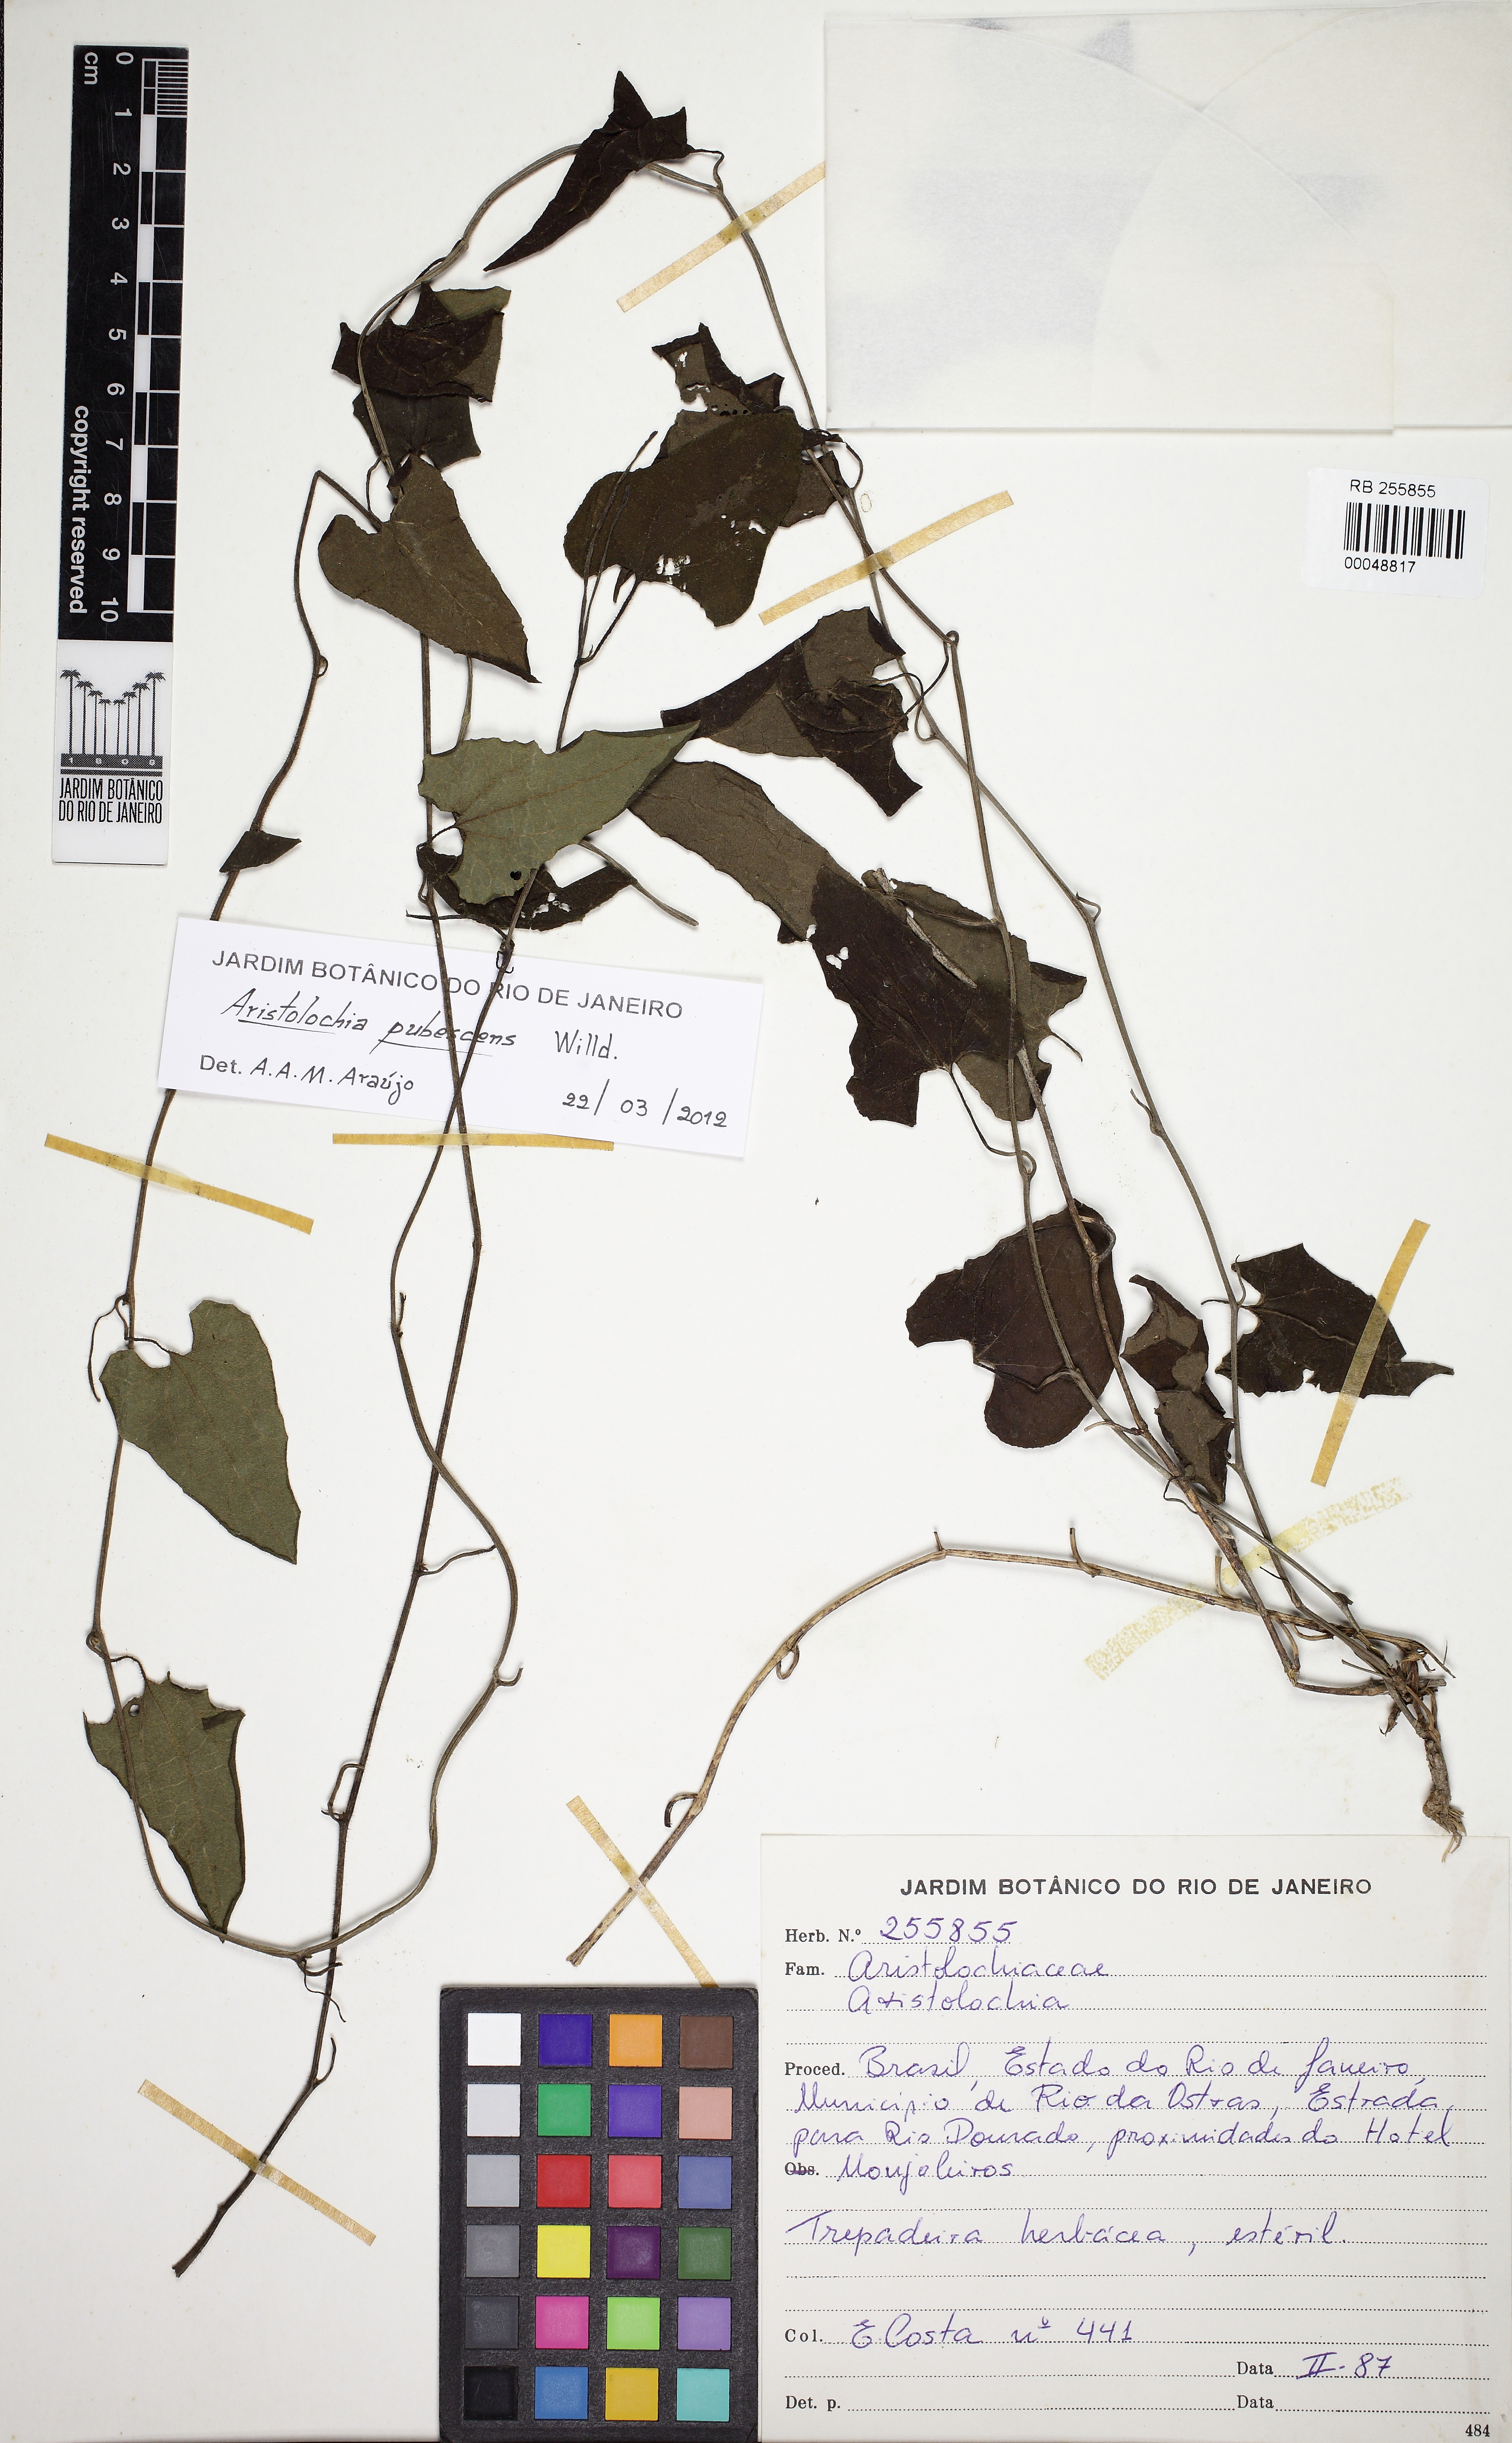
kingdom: Plantae
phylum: Tracheophyta
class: Magnoliopsida
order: Piperales
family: Aristolochiaceae
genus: Aristolochia
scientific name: Aristolochia pubescens
